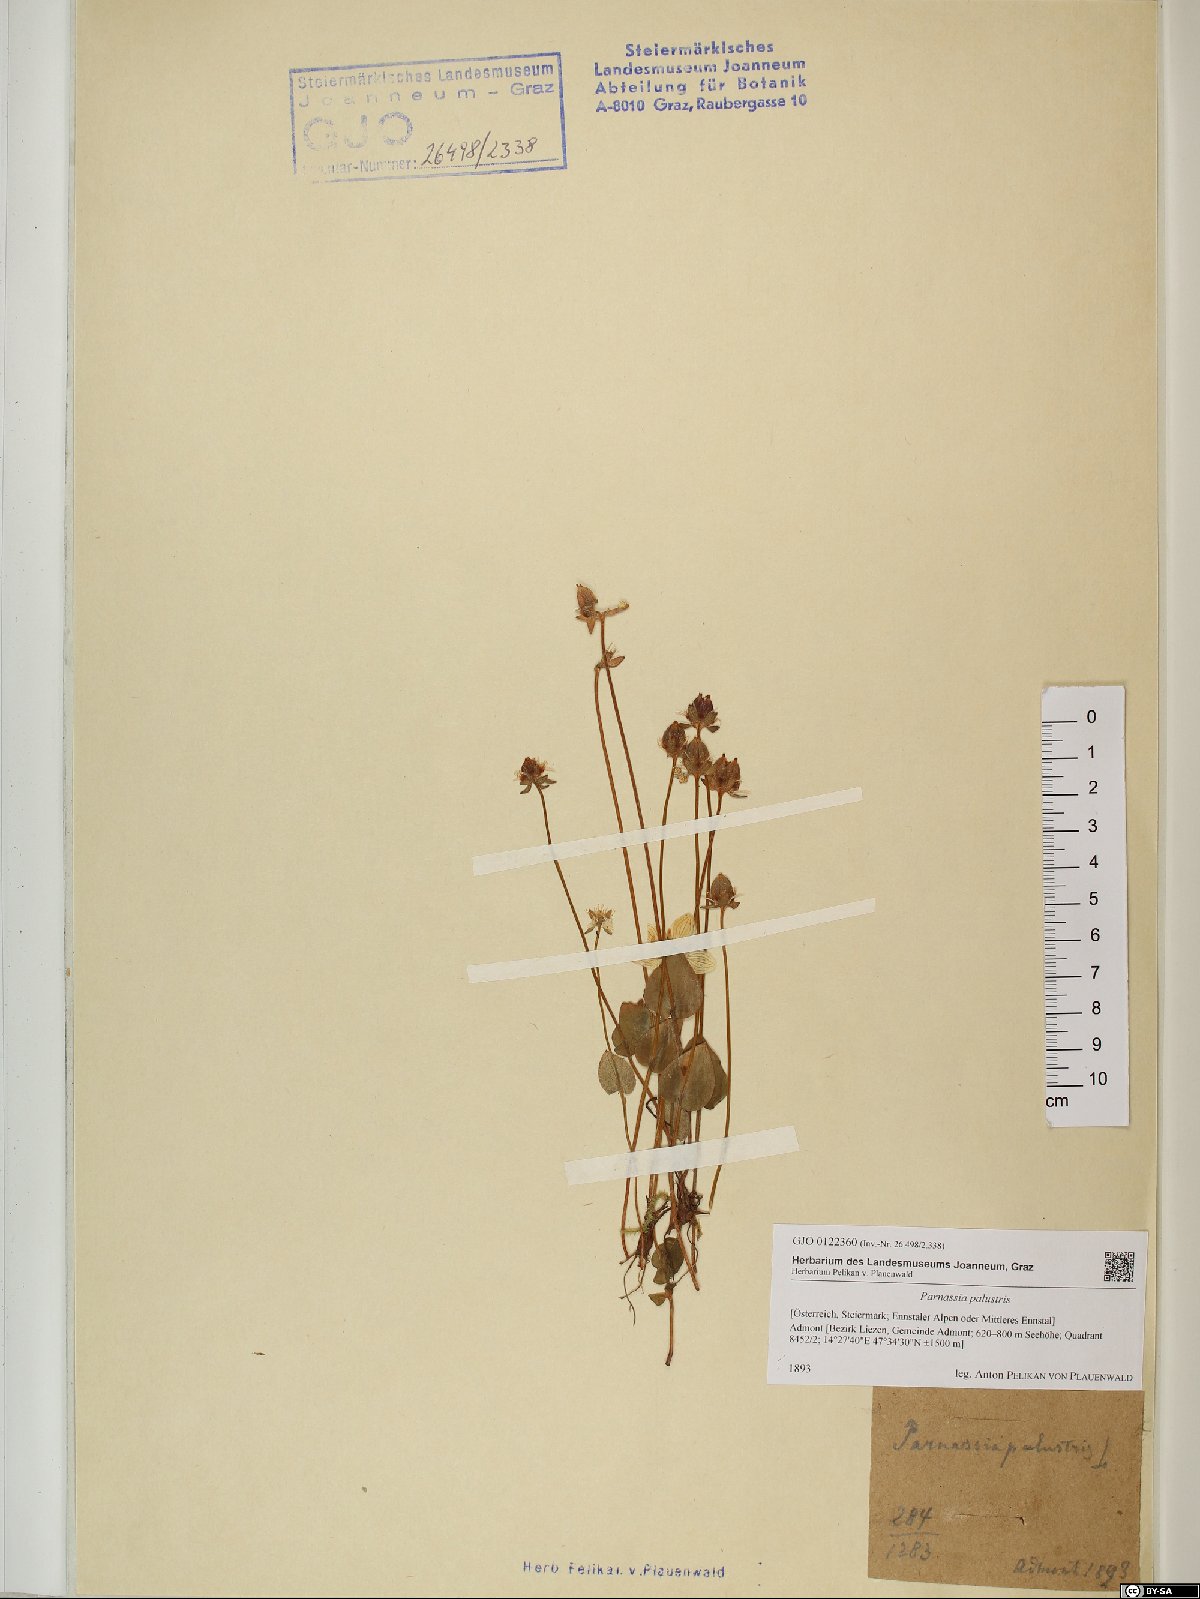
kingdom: Plantae
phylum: Tracheophyta
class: Magnoliopsida
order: Celastrales
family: Parnassiaceae
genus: Parnassia
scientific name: Parnassia palustris
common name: Grass-of-parnassus
